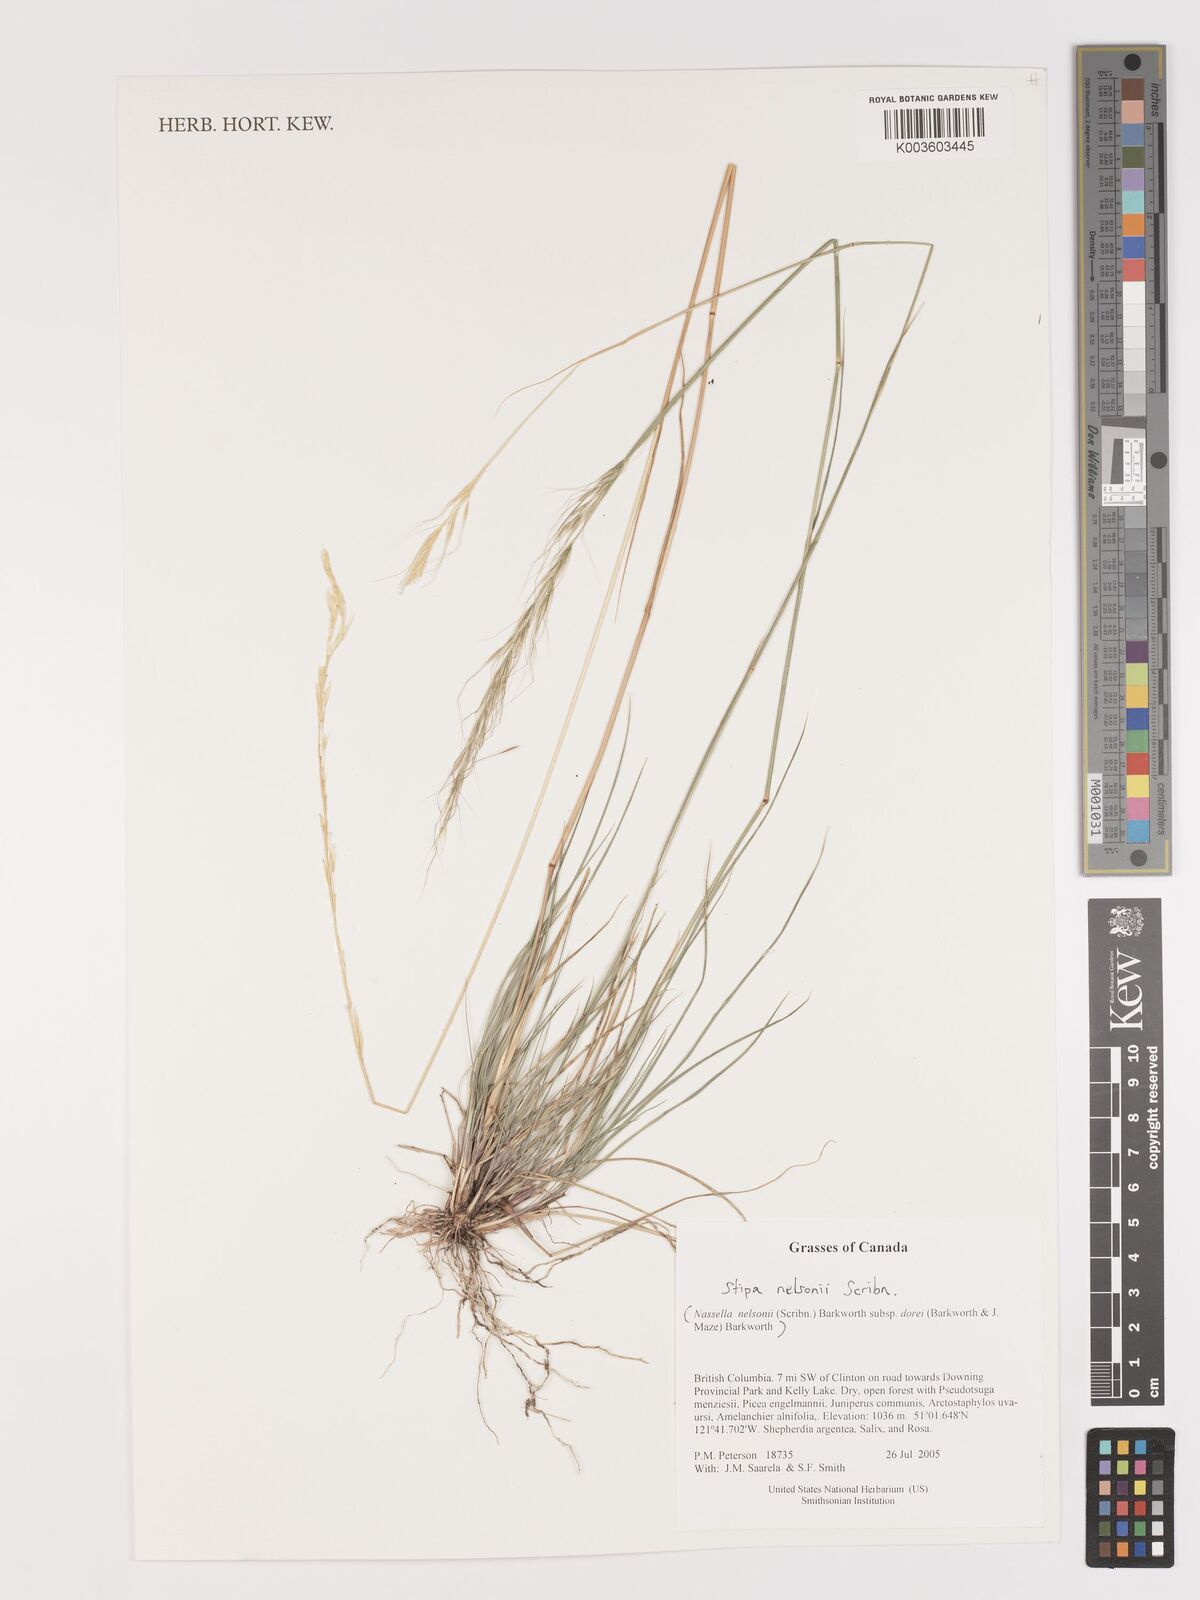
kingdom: Plantae
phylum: Tracheophyta
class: Liliopsida
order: Poales
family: Poaceae
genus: Eriocoma
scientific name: Eriocoma nelsonii
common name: Nelson's needlegrass
